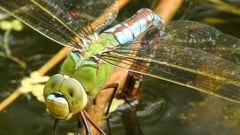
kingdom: Animalia
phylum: Arthropoda
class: Insecta
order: Odonata
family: Aeshnidae
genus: Anax
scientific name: Anax imperator
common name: Emperor dragonfly
